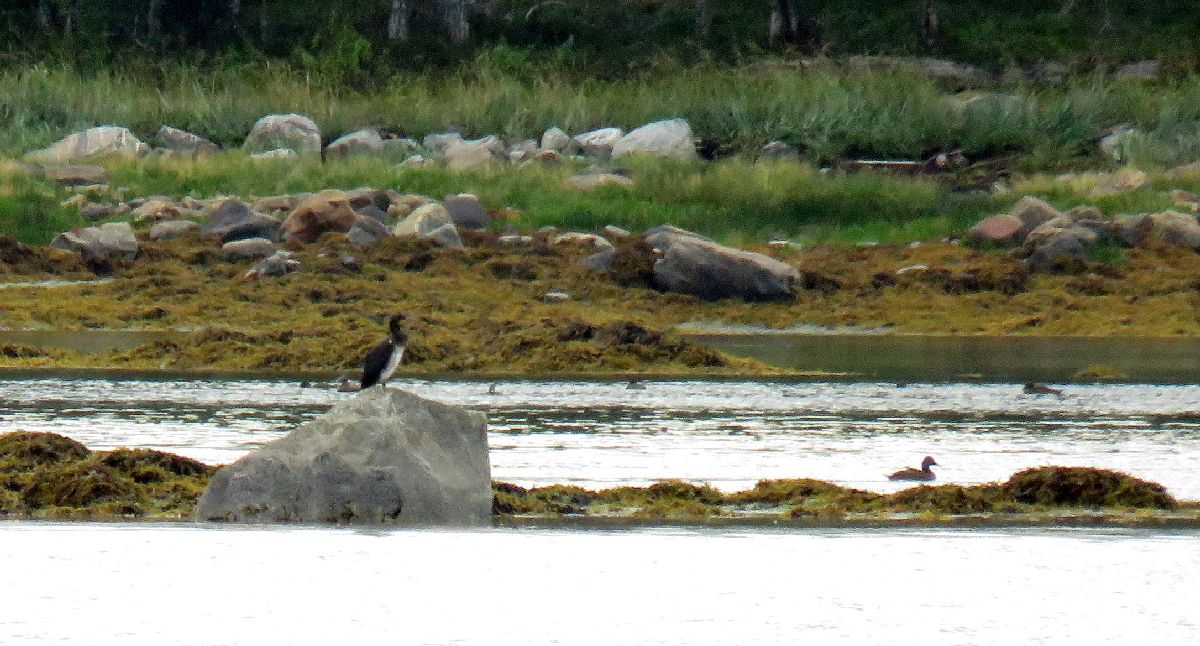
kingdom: Animalia
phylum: Chordata
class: Aves
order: Suliformes
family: Phalacrocoracidae
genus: Phalacrocorax
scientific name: Phalacrocorax aristotelis
